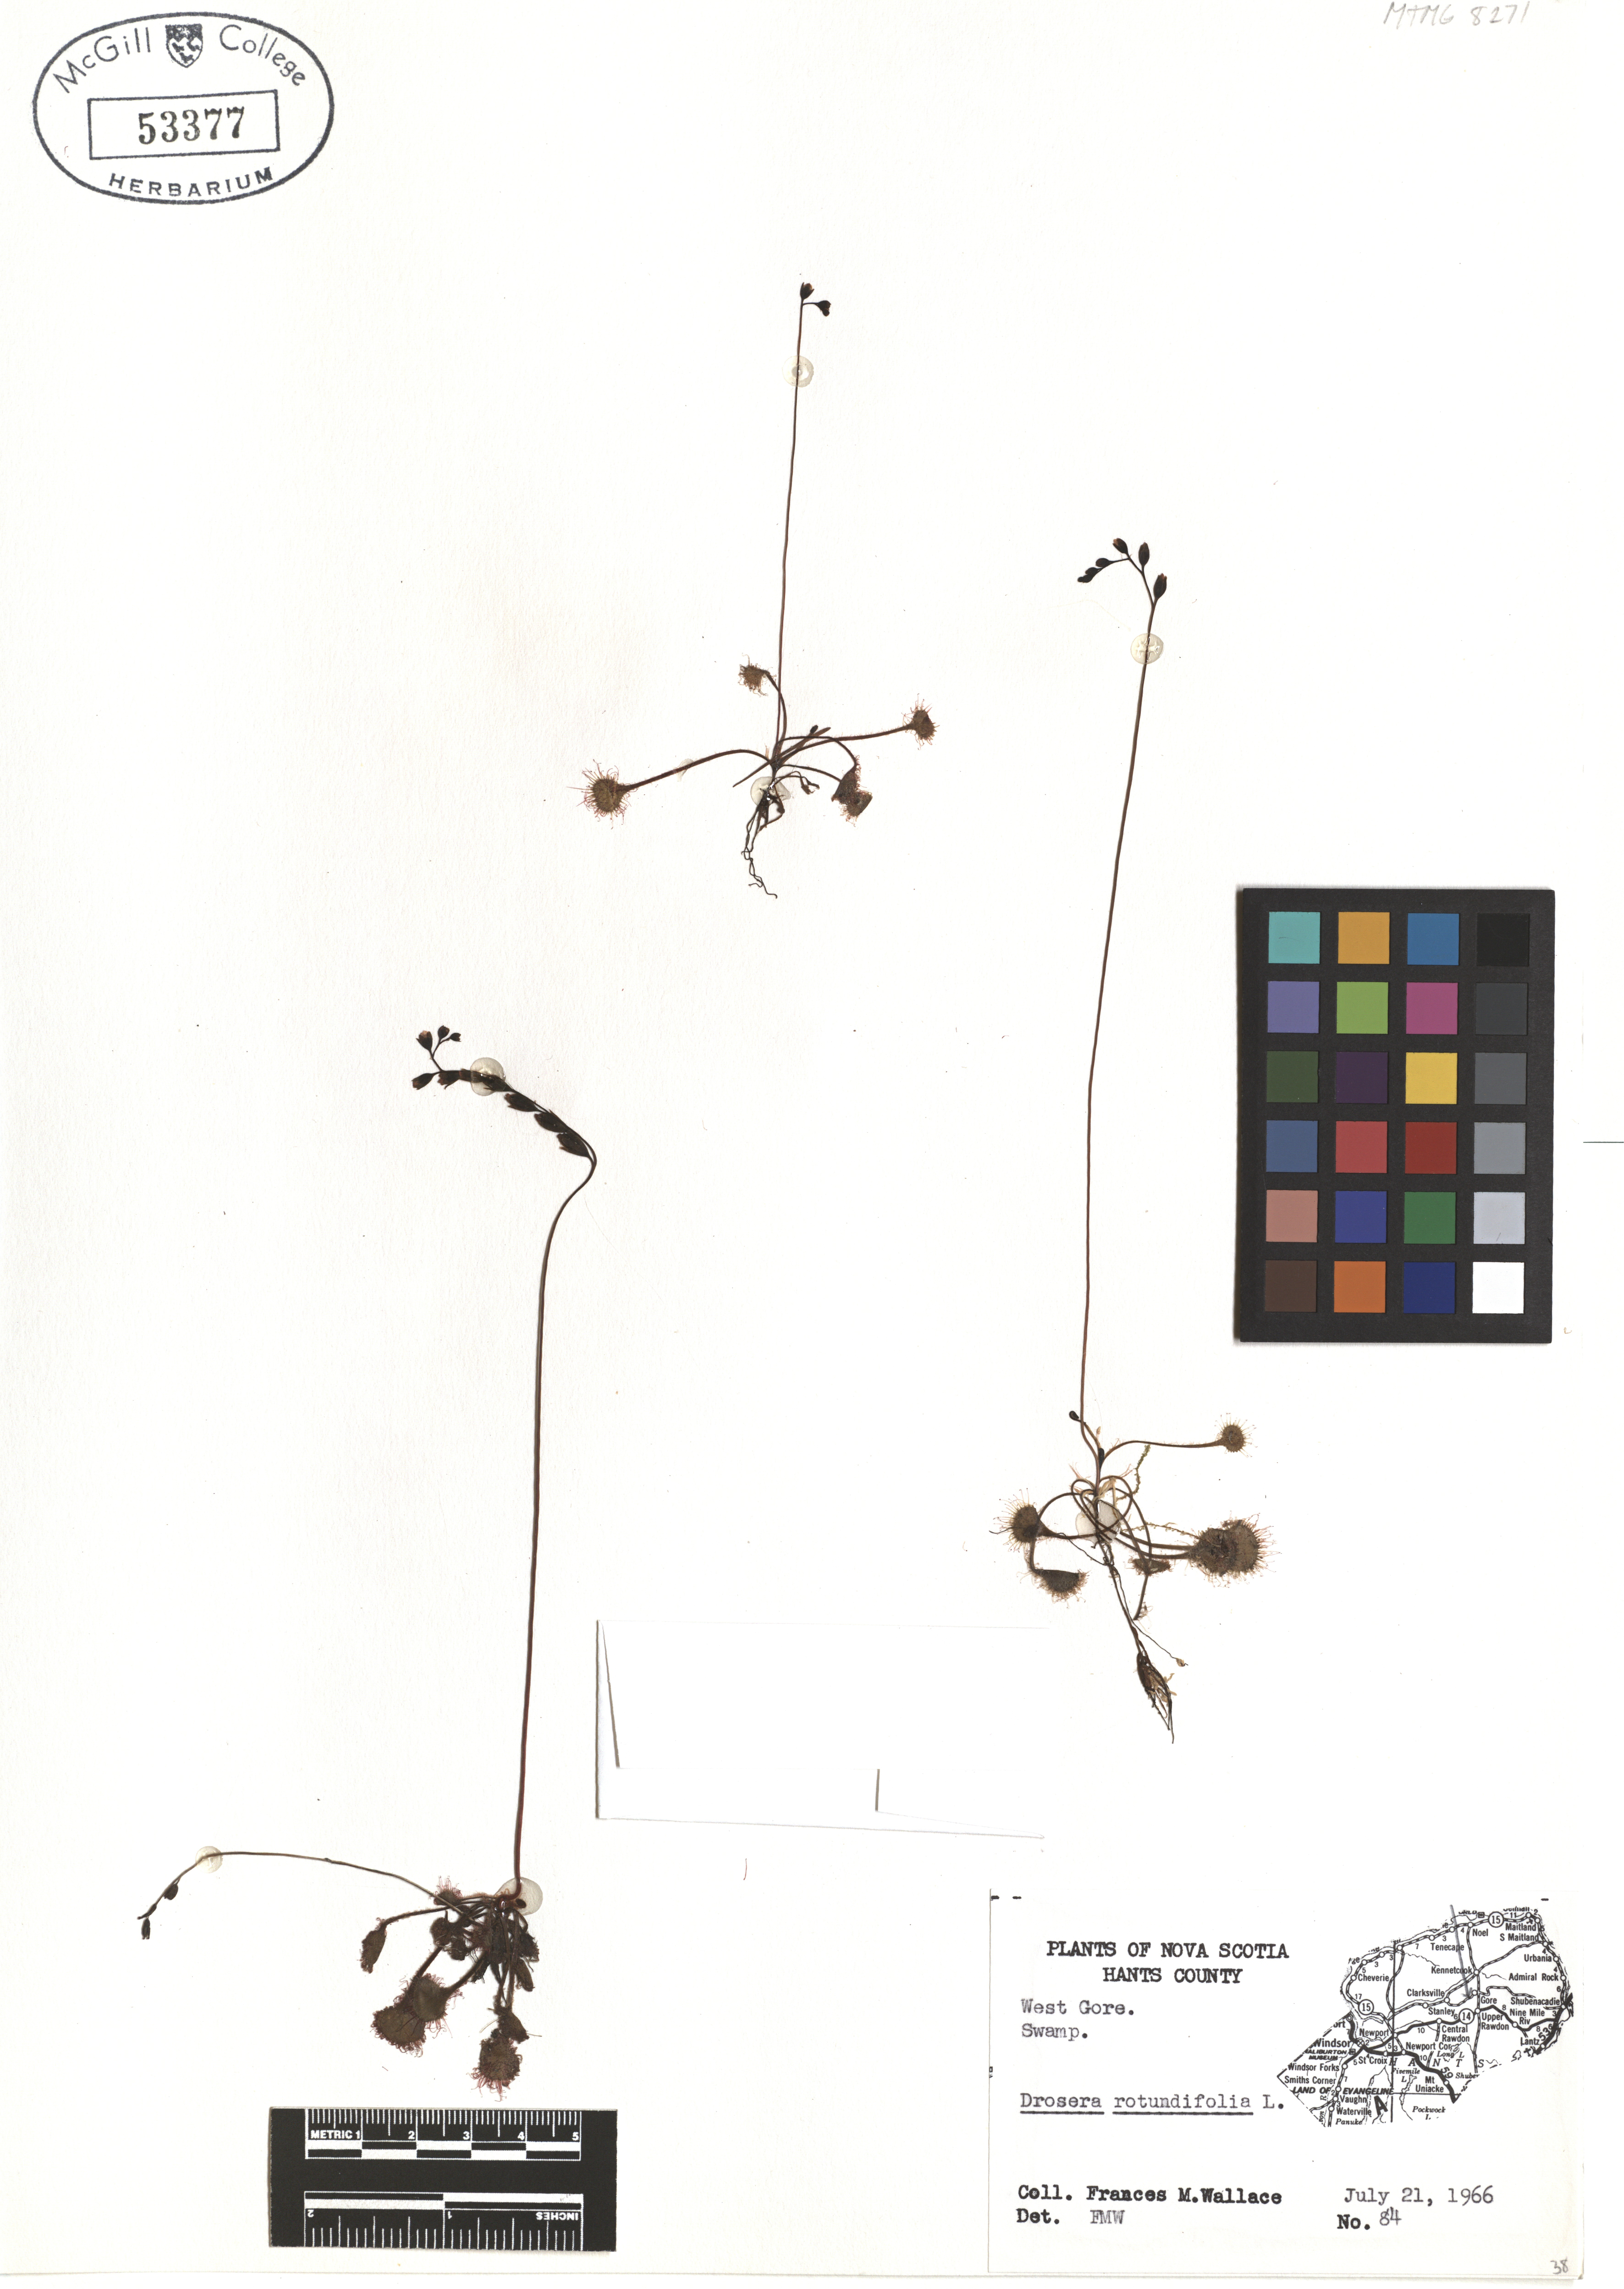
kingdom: Plantae
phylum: Tracheophyta
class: Magnoliopsida
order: Caryophyllales
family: Droseraceae
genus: Drosera
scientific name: Drosera rotundifolia
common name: Round-leaved sundew
